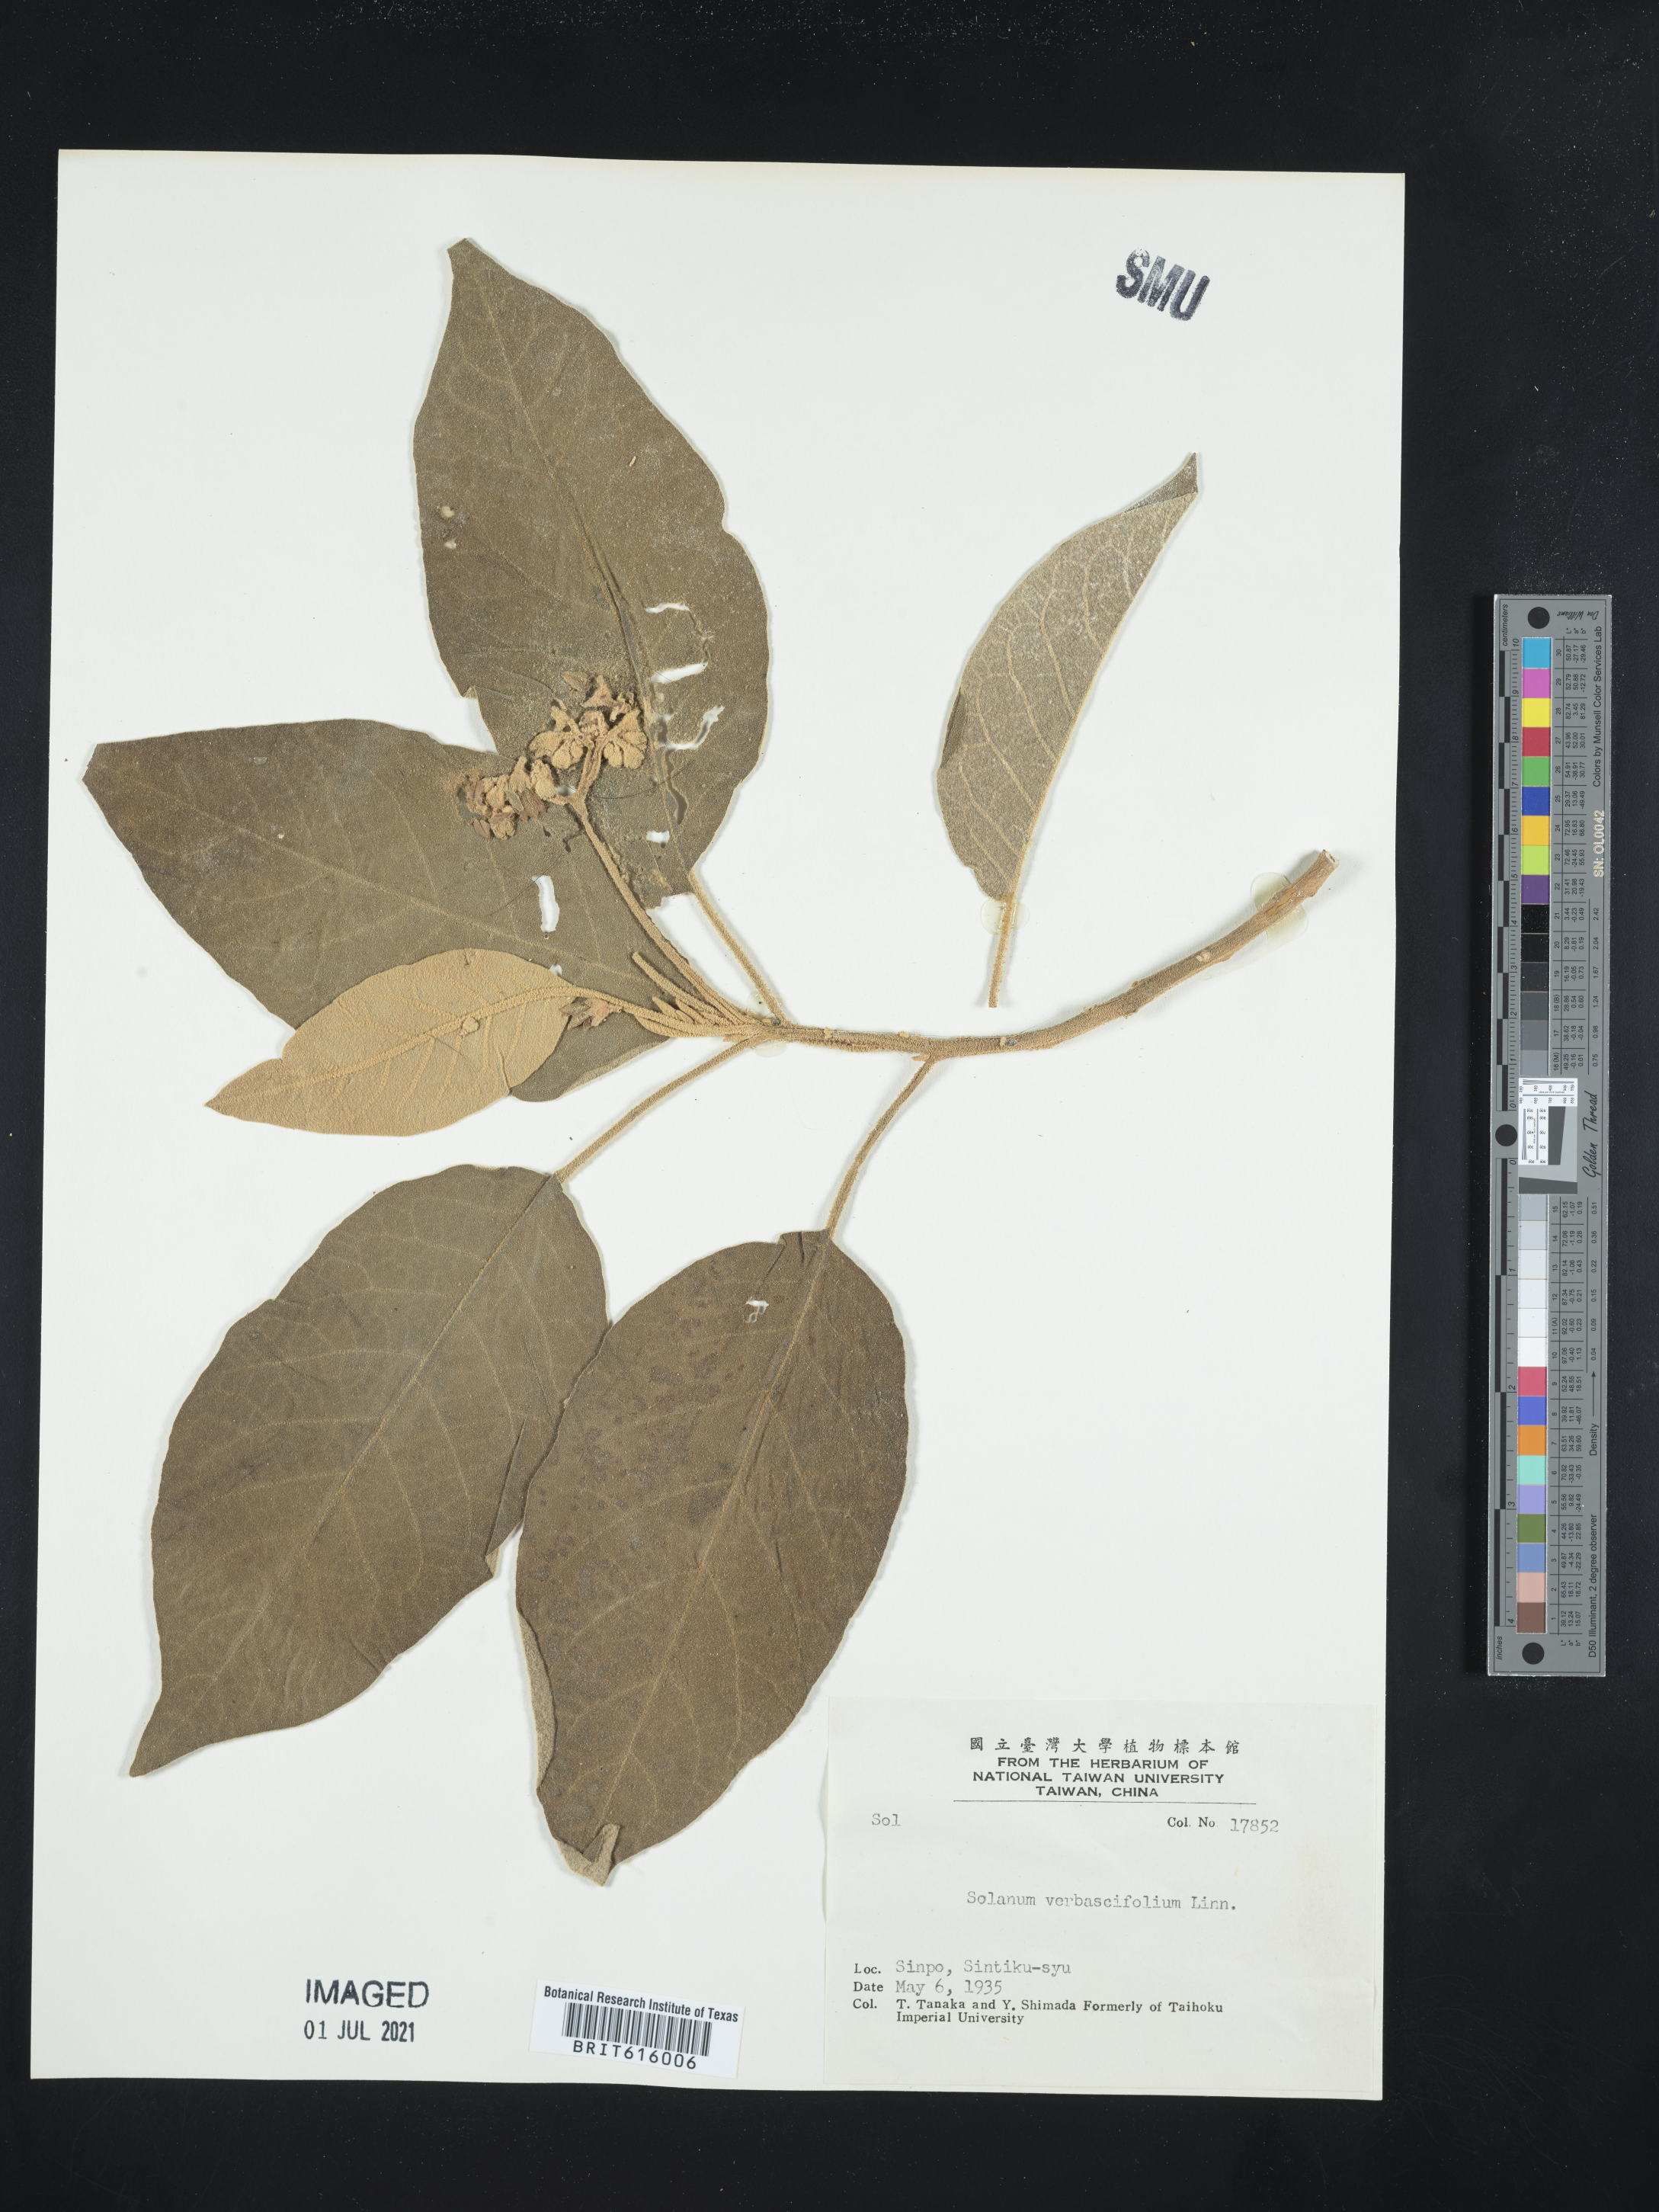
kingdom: Plantae
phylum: Tracheophyta
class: Magnoliopsida
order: Solanales
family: Solanaceae
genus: Solanum
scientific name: Solanum
